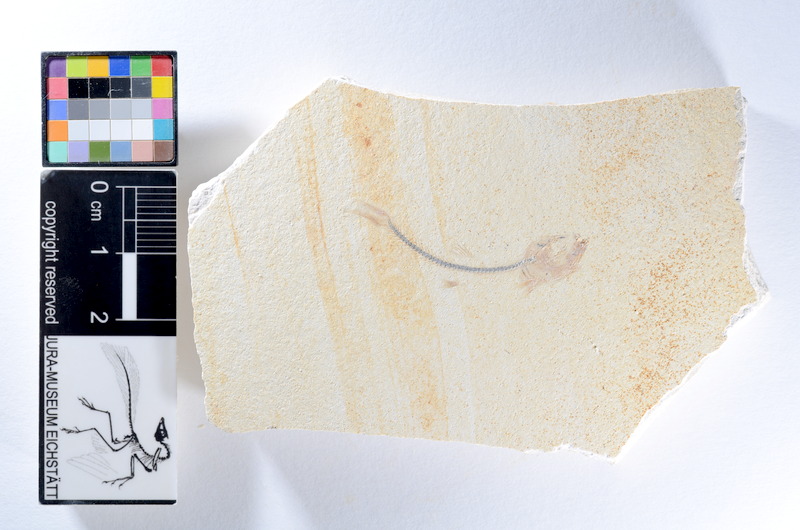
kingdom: Animalia
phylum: Chordata
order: Salmoniformes
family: Orthogonikleithridae
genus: Orthogonikleithrus
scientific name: Orthogonikleithrus hoelli
